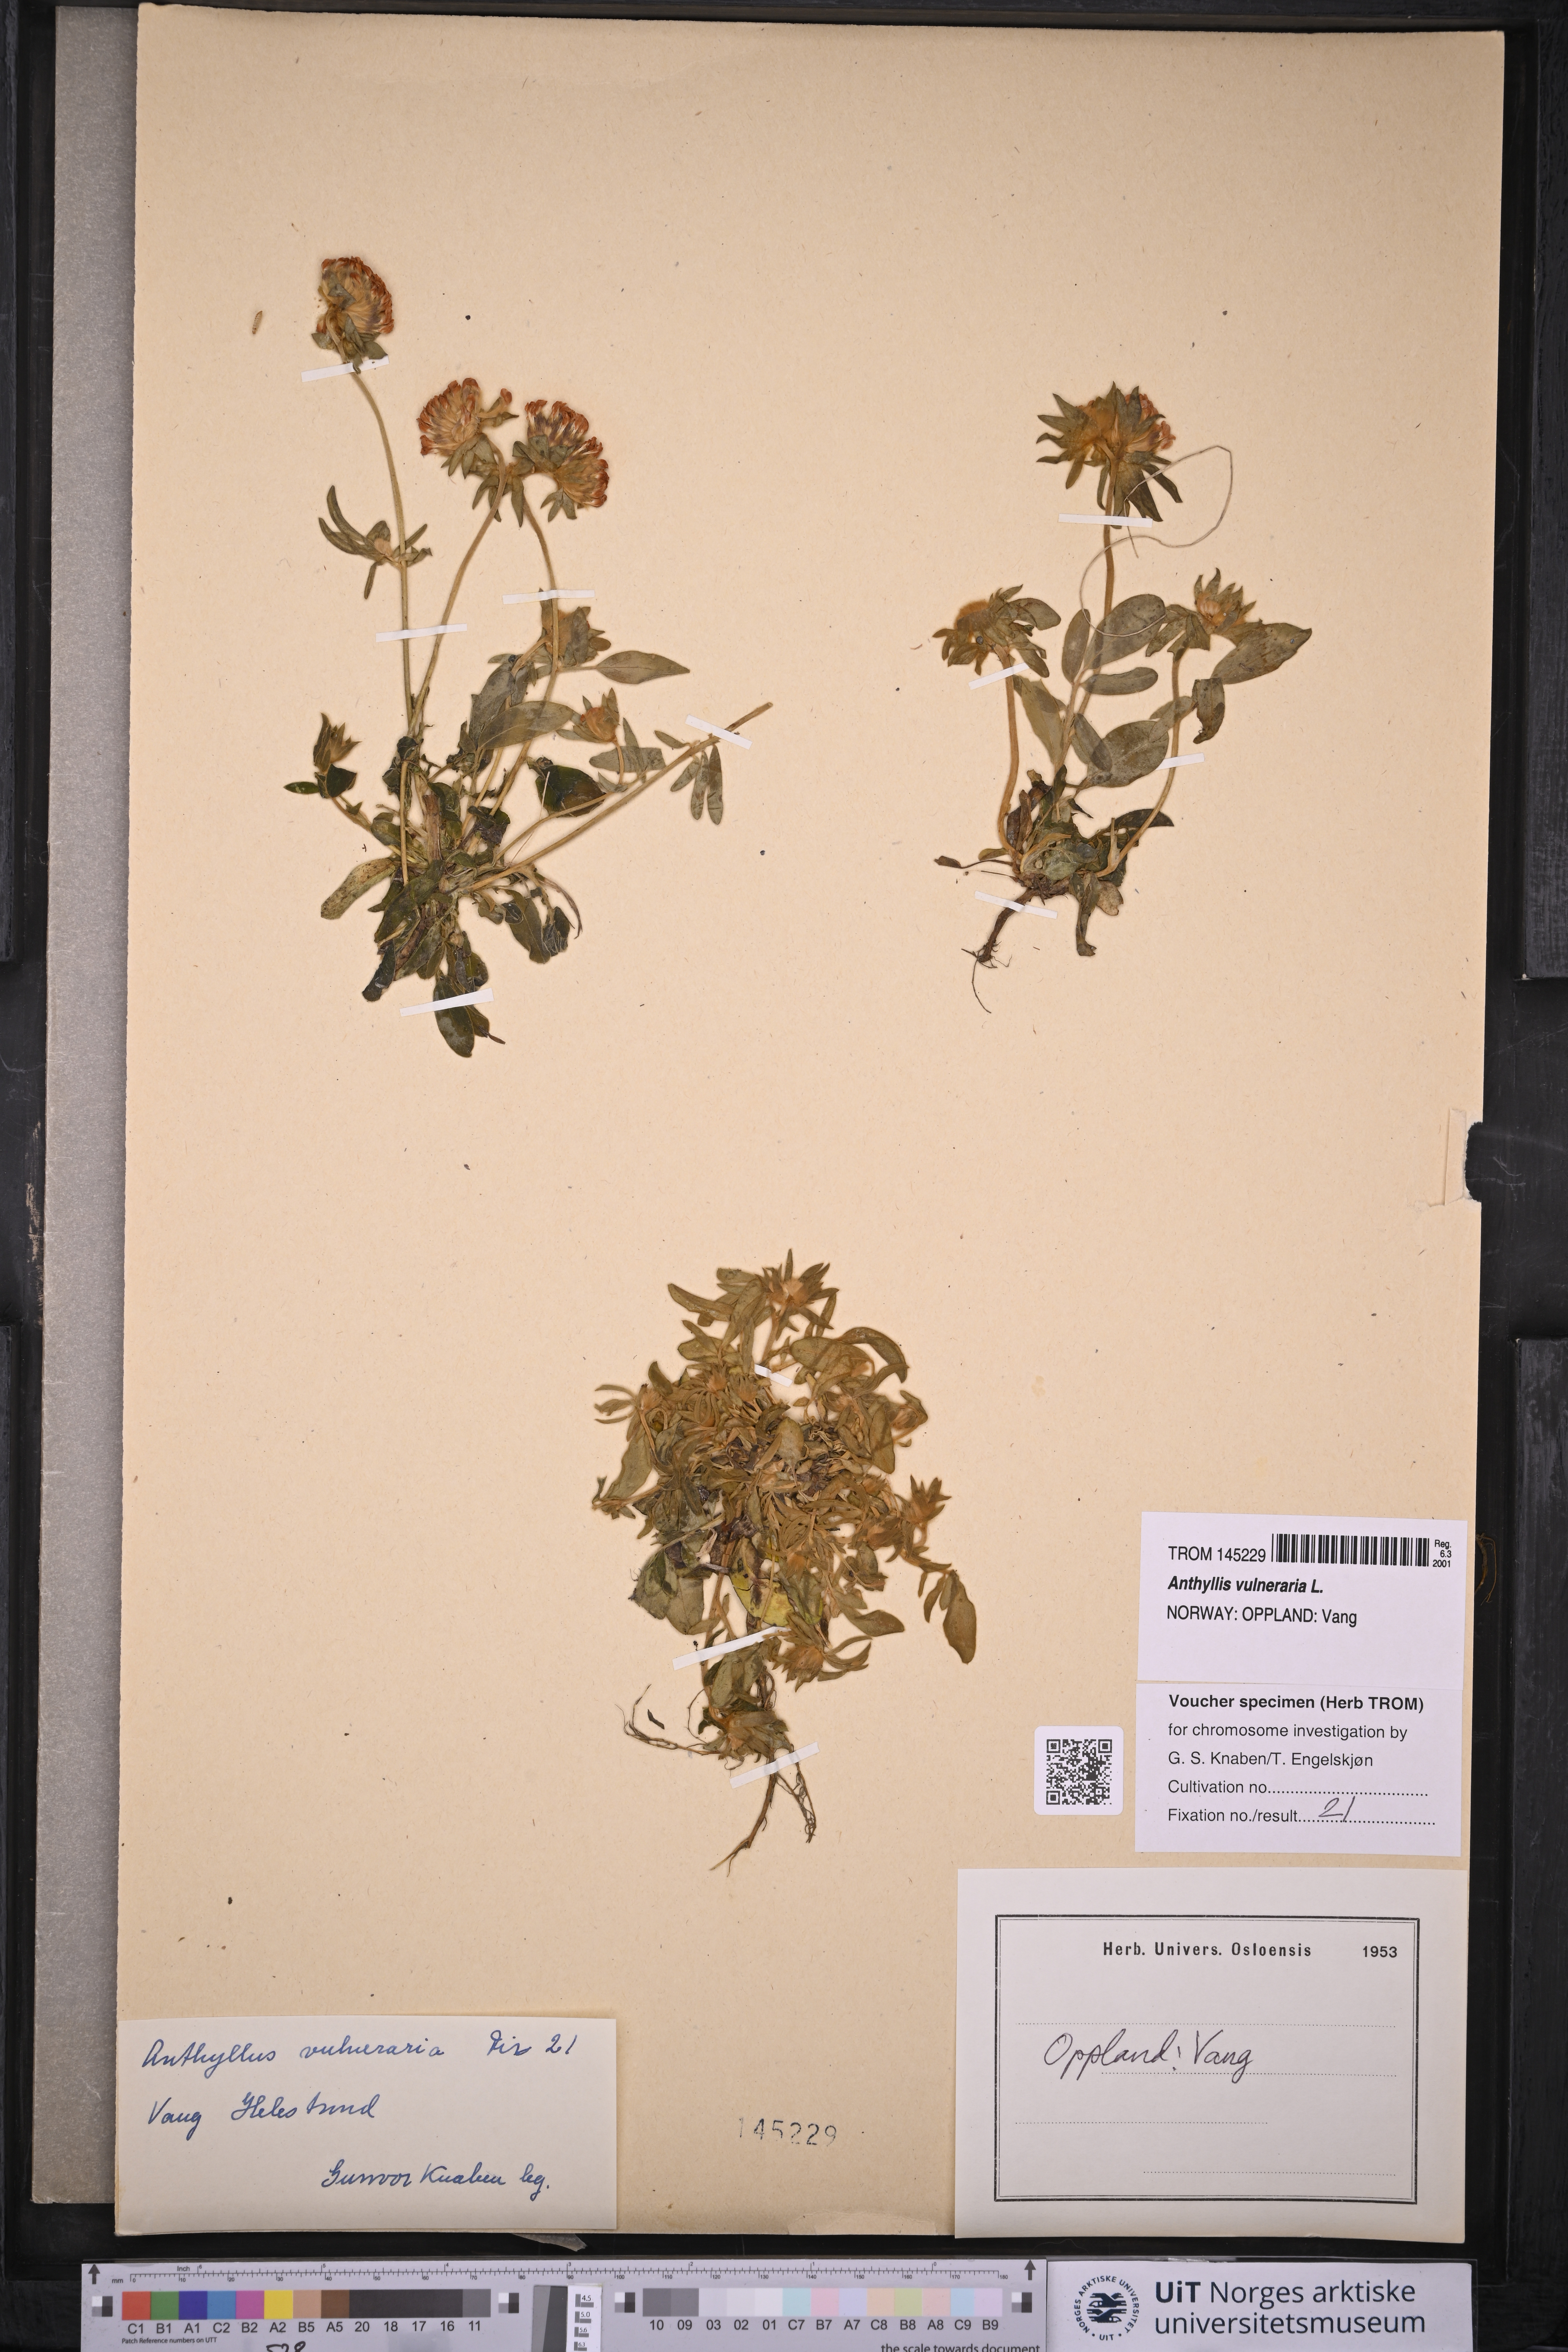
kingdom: Plantae
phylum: Tracheophyta
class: Magnoliopsida
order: Fabales
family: Fabaceae
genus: Anthyllis
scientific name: Anthyllis vulneraria
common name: Kidney vetch
